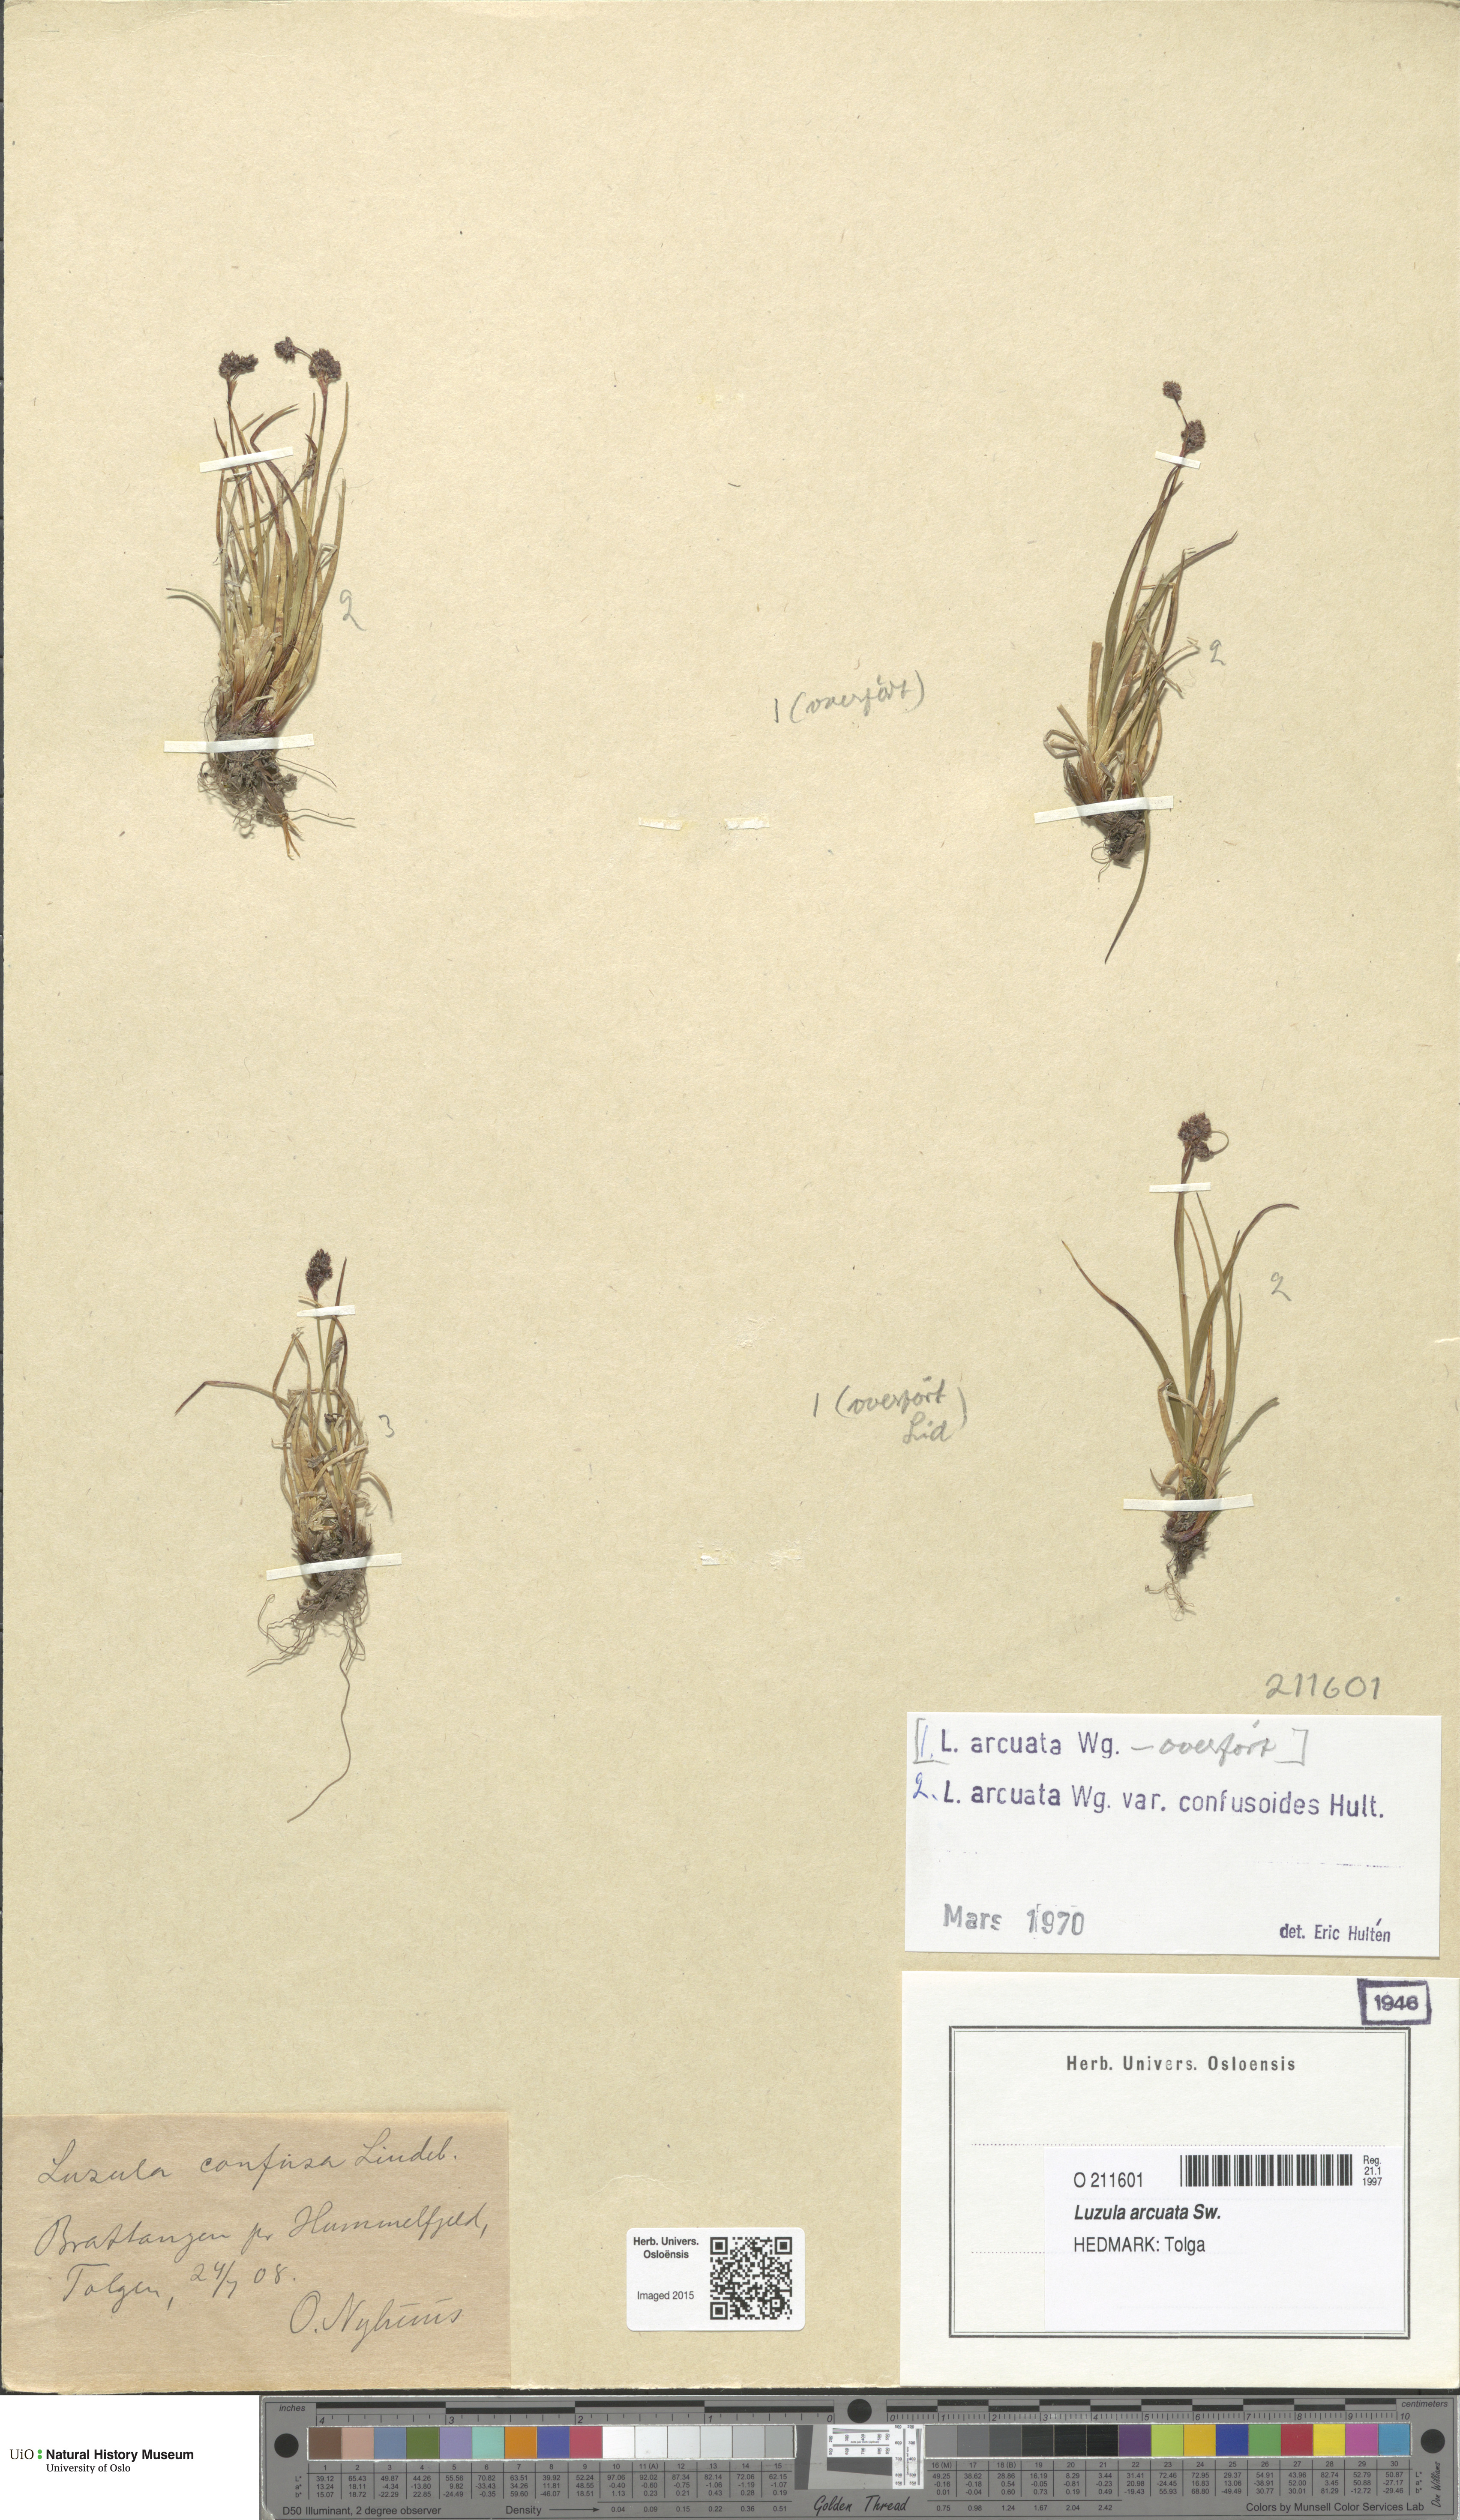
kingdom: Plantae
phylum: Tracheophyta
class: Liliopsida
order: Poales
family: Juncaceae
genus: Luzula
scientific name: Luzula arcuata
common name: Curved wood-rush
